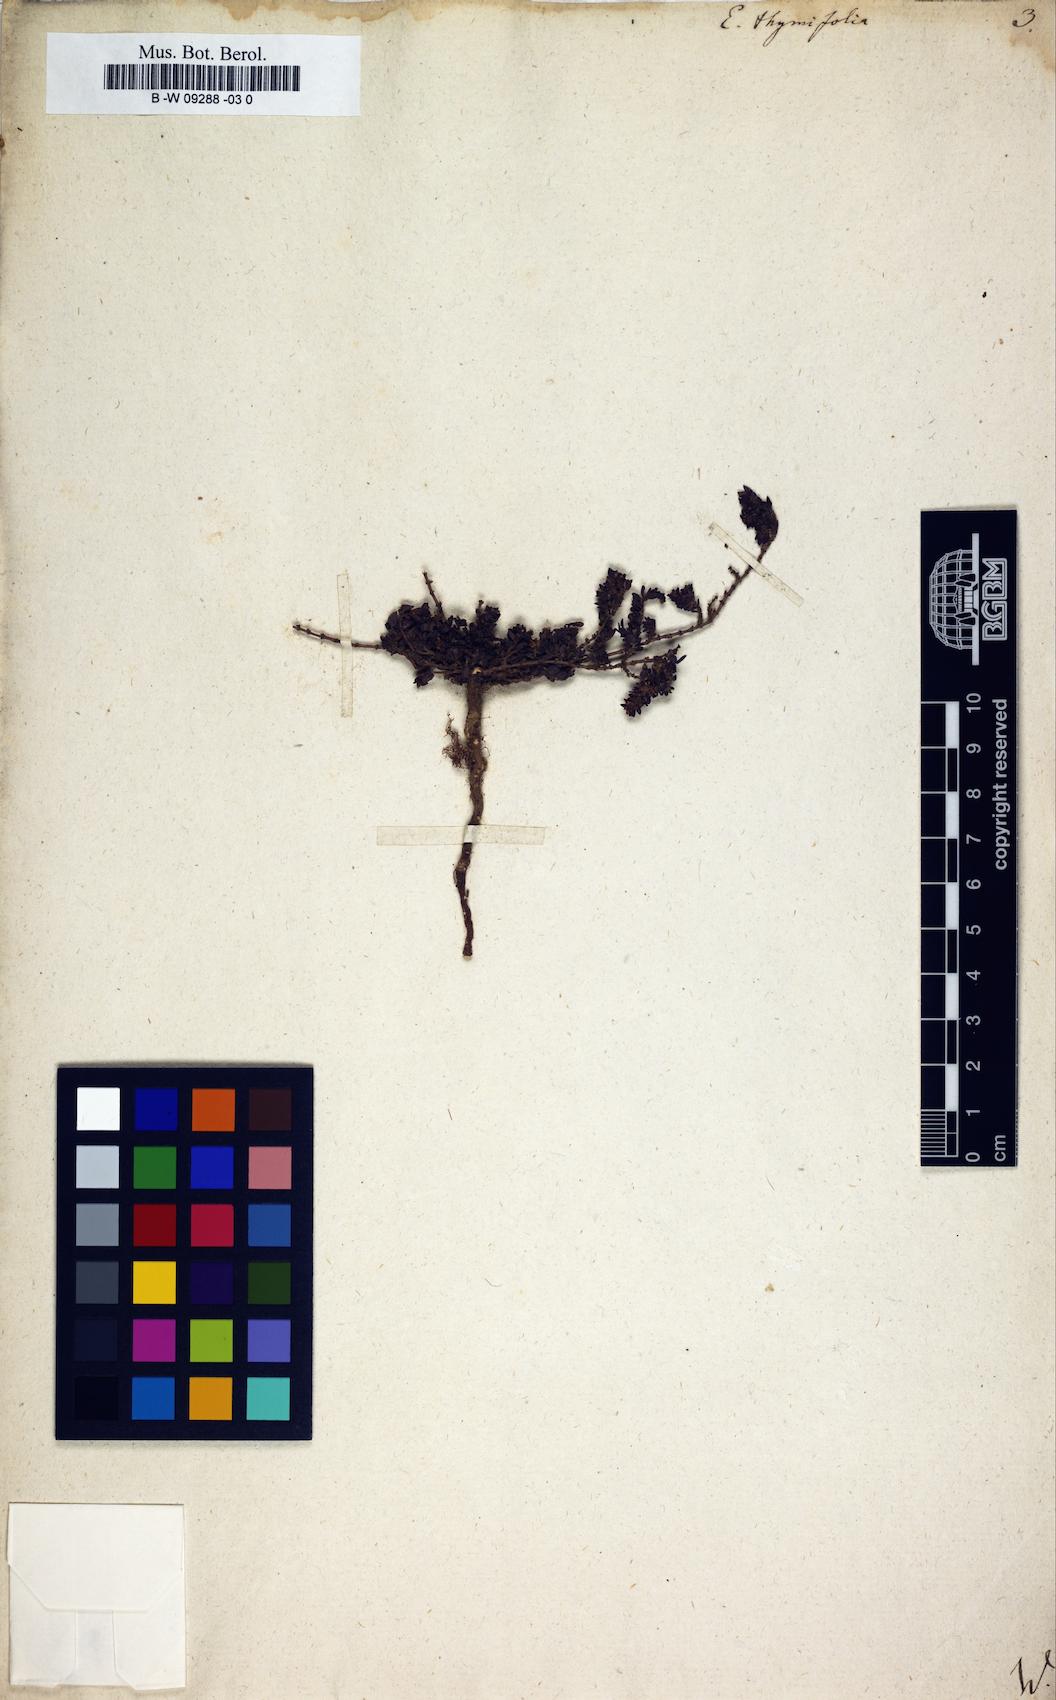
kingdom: Plantae
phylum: Tracheophyta
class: Magnoliopsida
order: Malpighiales
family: Euphorbiaceae
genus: Euphorbia
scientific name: Euphorbia thymifolia
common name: Gulf sandmat
